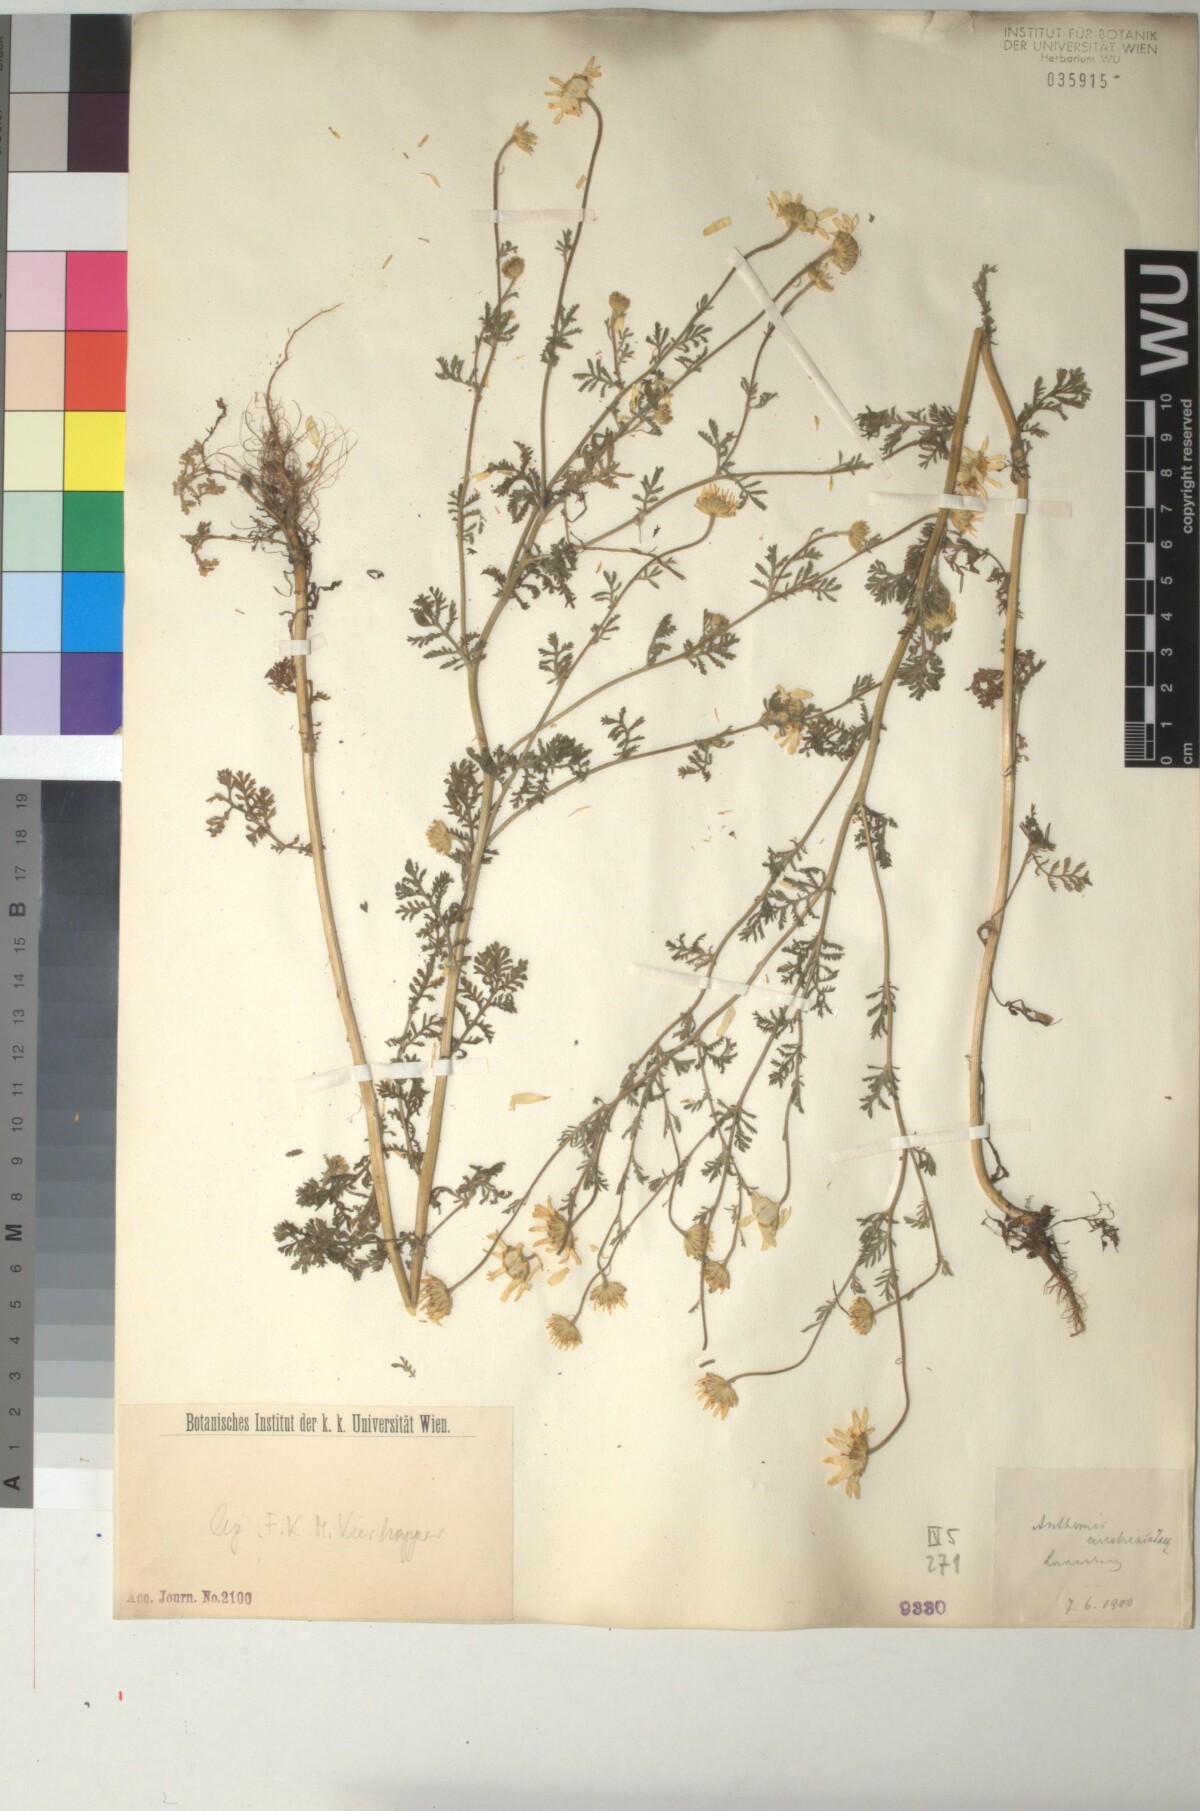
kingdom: Plantae
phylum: Tracheophyta
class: Magnoliopsida
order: Asterales
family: Asteraceae
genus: Cota
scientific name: Cota austriaca
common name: Austrian chamomile
